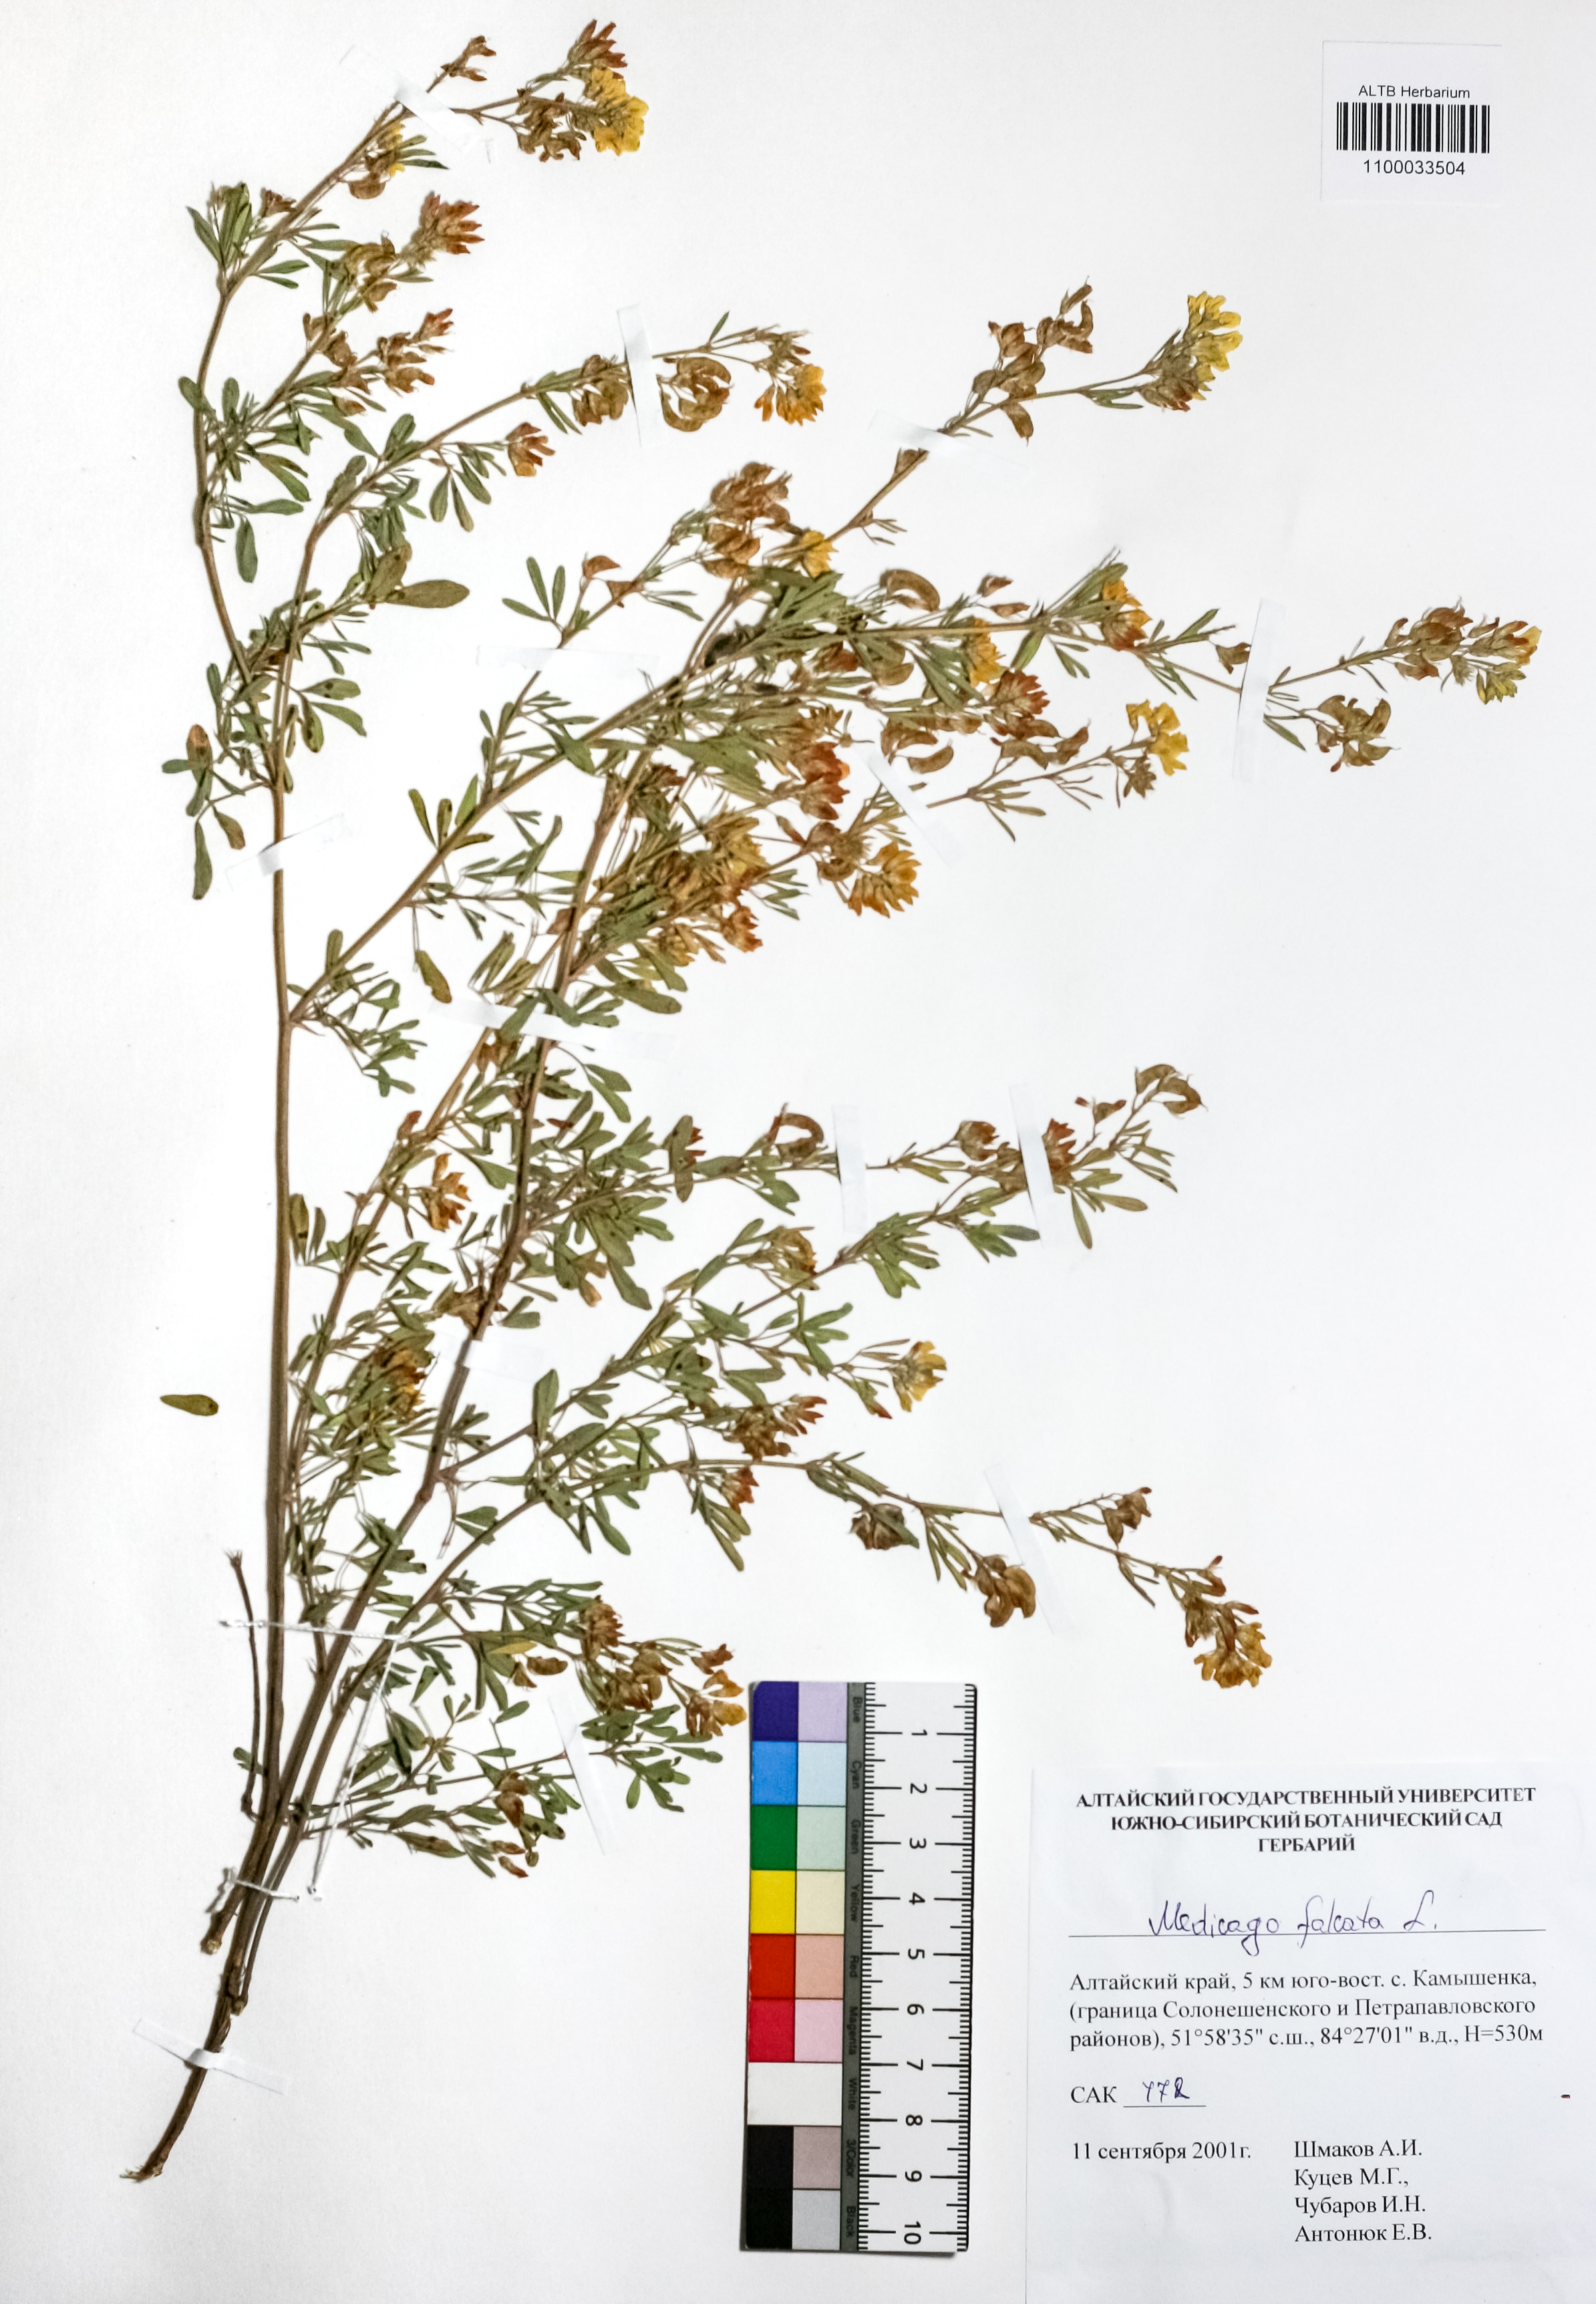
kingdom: Plantae
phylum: Tracheophyta
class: Magnoliopsida
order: Fabales
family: Fabaceae
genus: Medicago
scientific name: Medicago falcata
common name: Sickle medick
